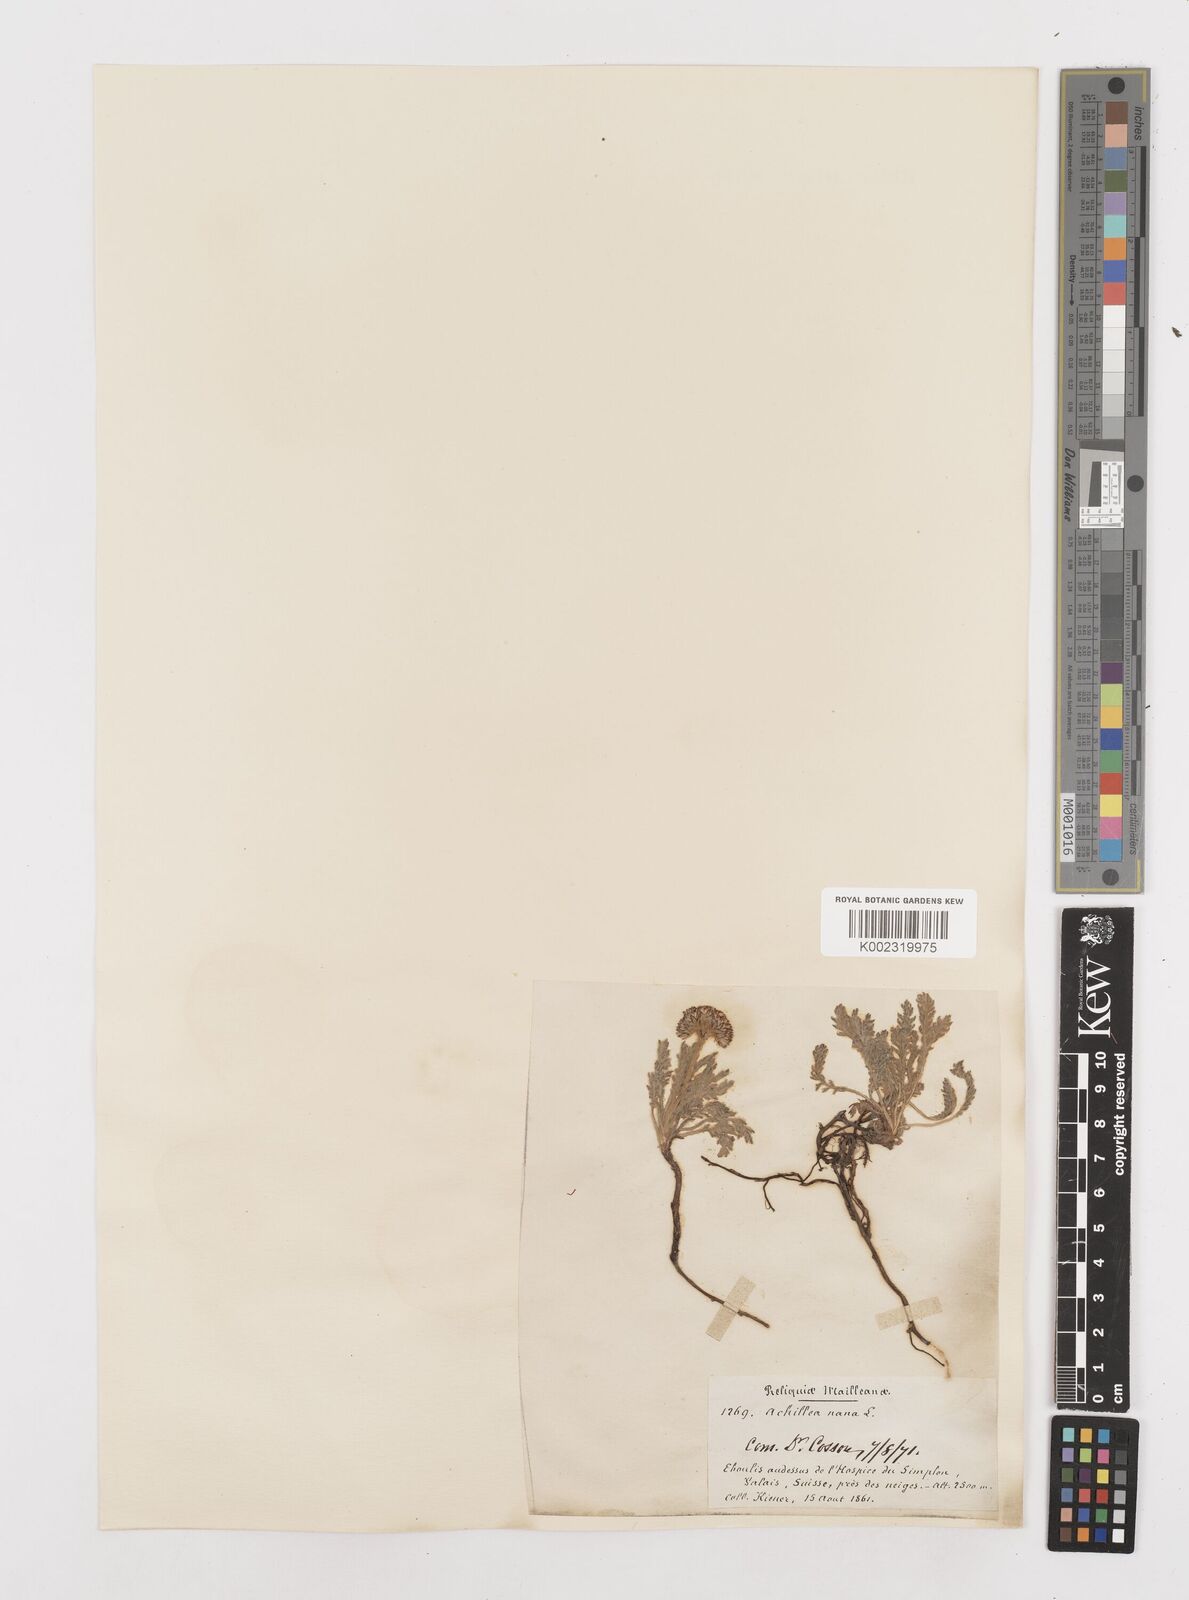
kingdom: Plantae
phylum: Tracheophyta
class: Magnoliopsida
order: Asterales
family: Asteraceae
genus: Achillea
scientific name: Achillea erba-rotta
